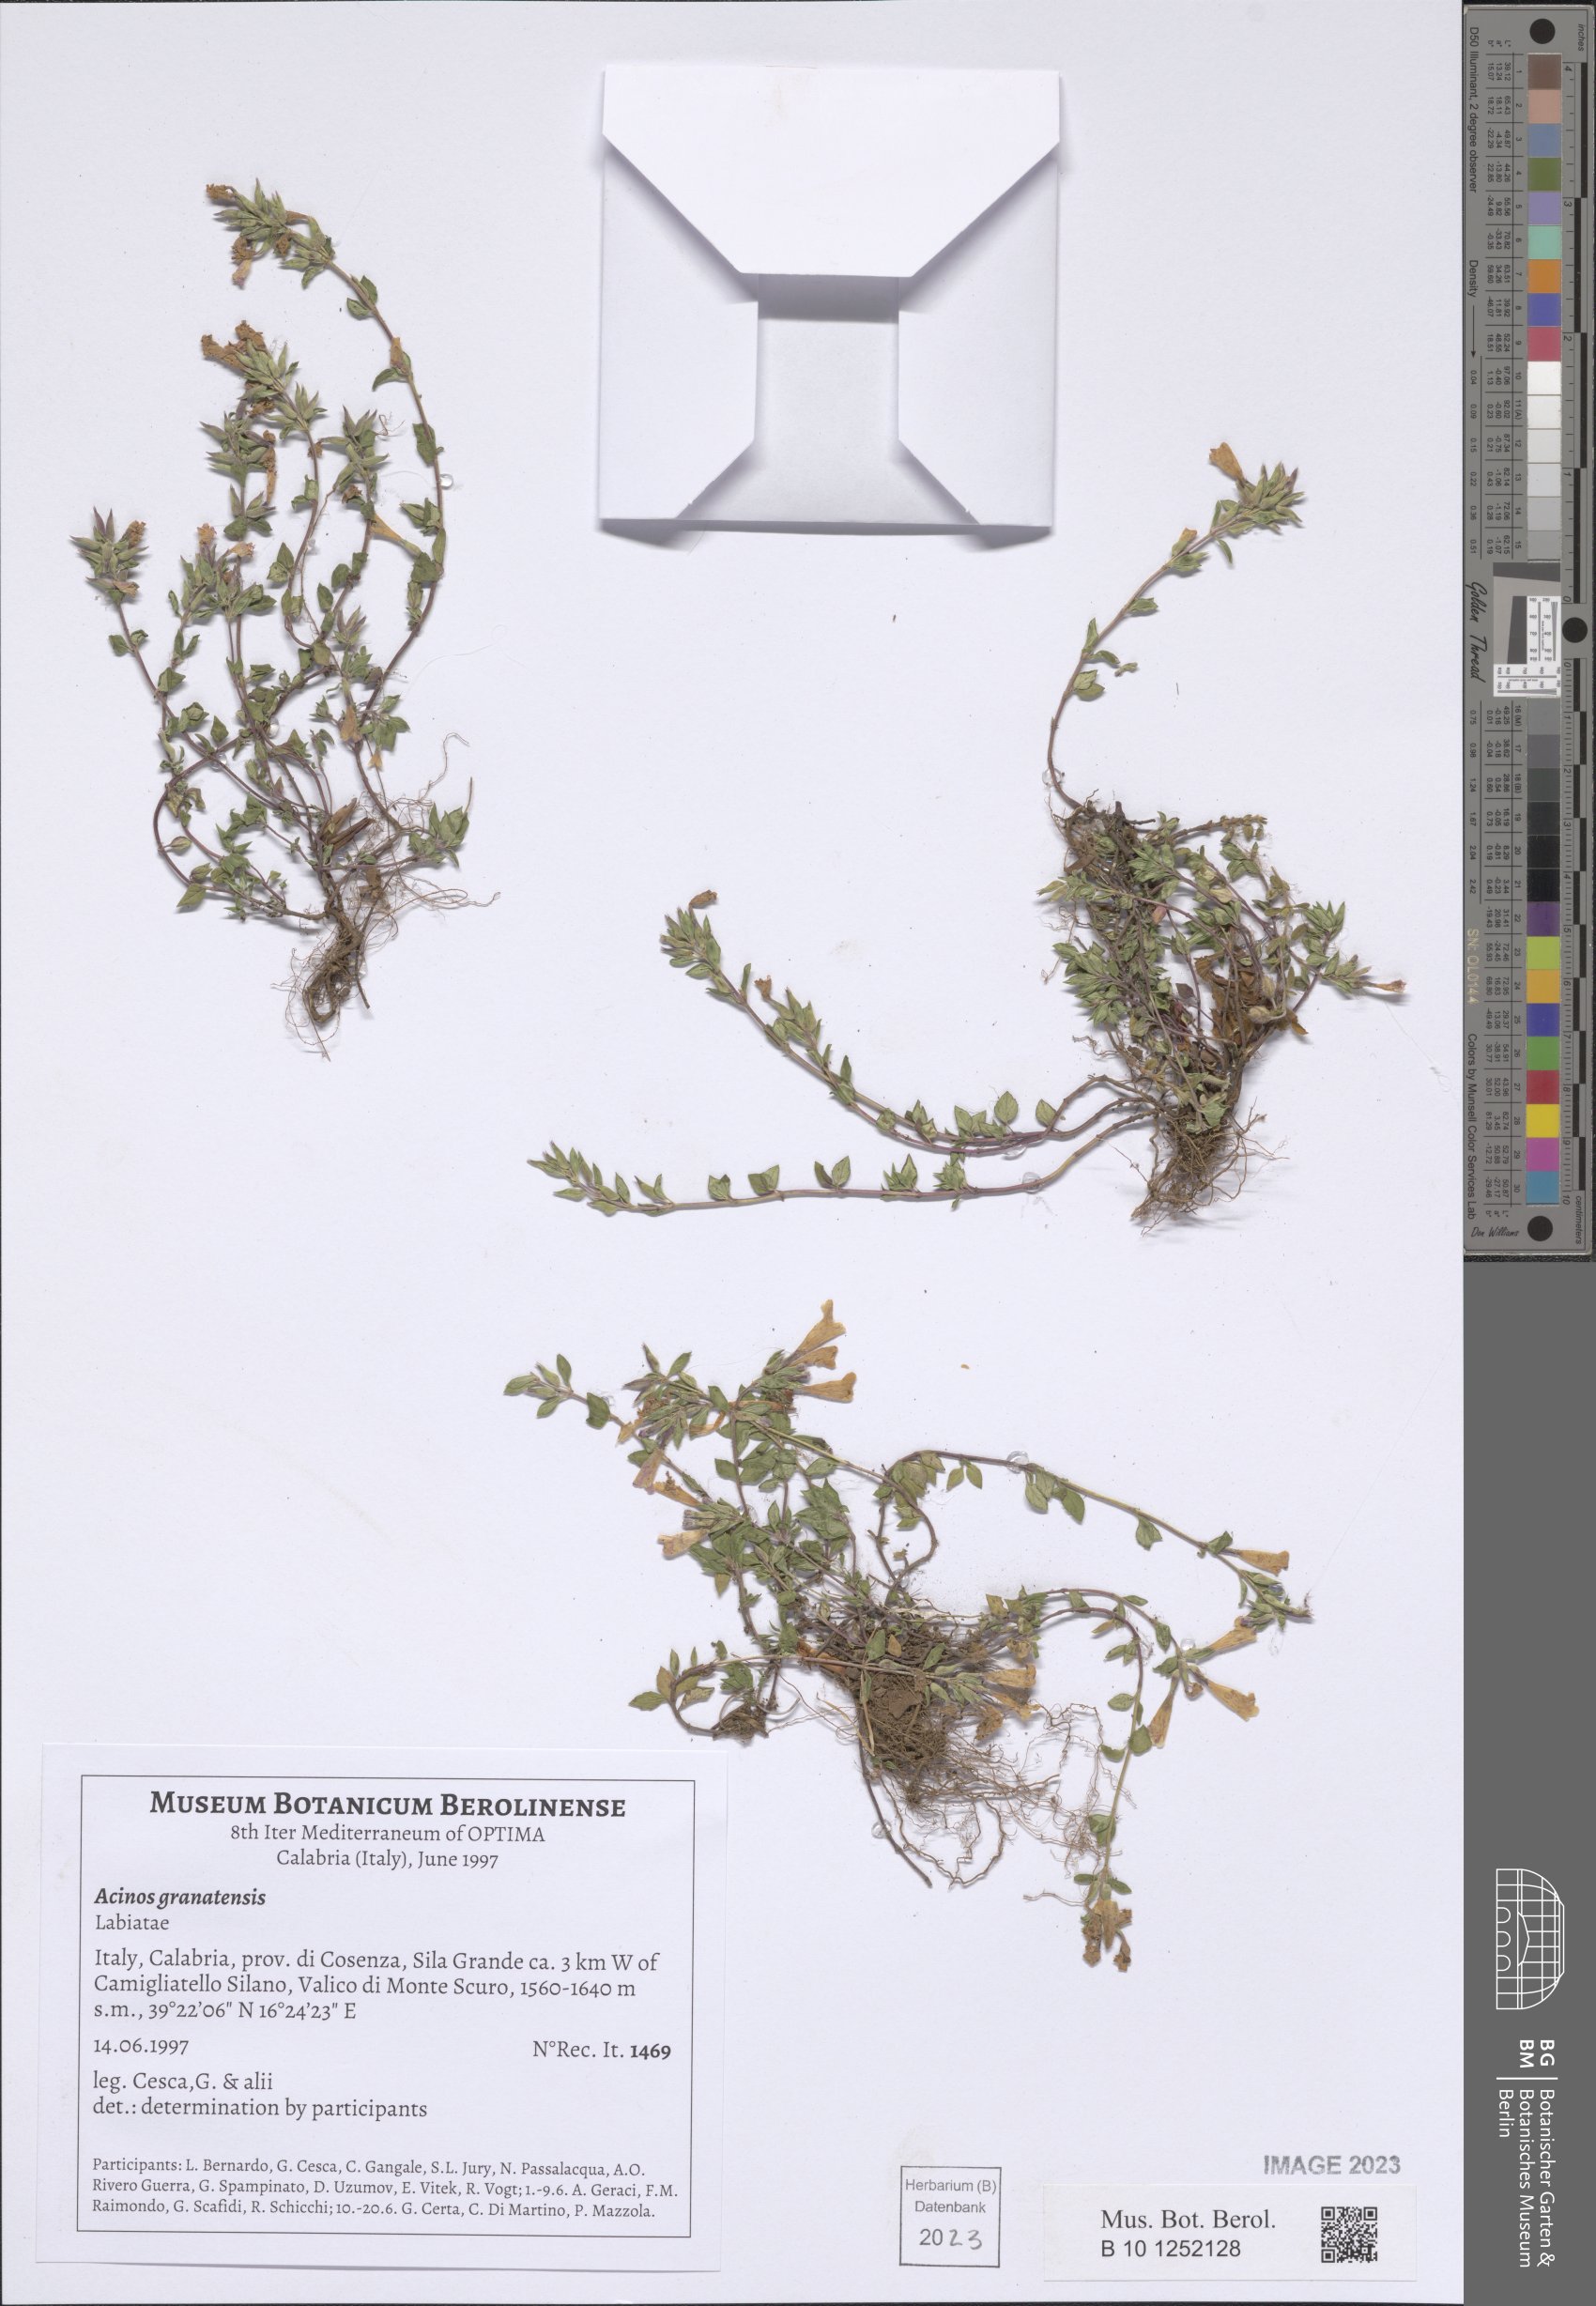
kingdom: Plantae
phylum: Tracheophyta
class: Magnoliopsida
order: Lamiales
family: Lamiaceae
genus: Clinopodium
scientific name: Clinopodium alpinum
